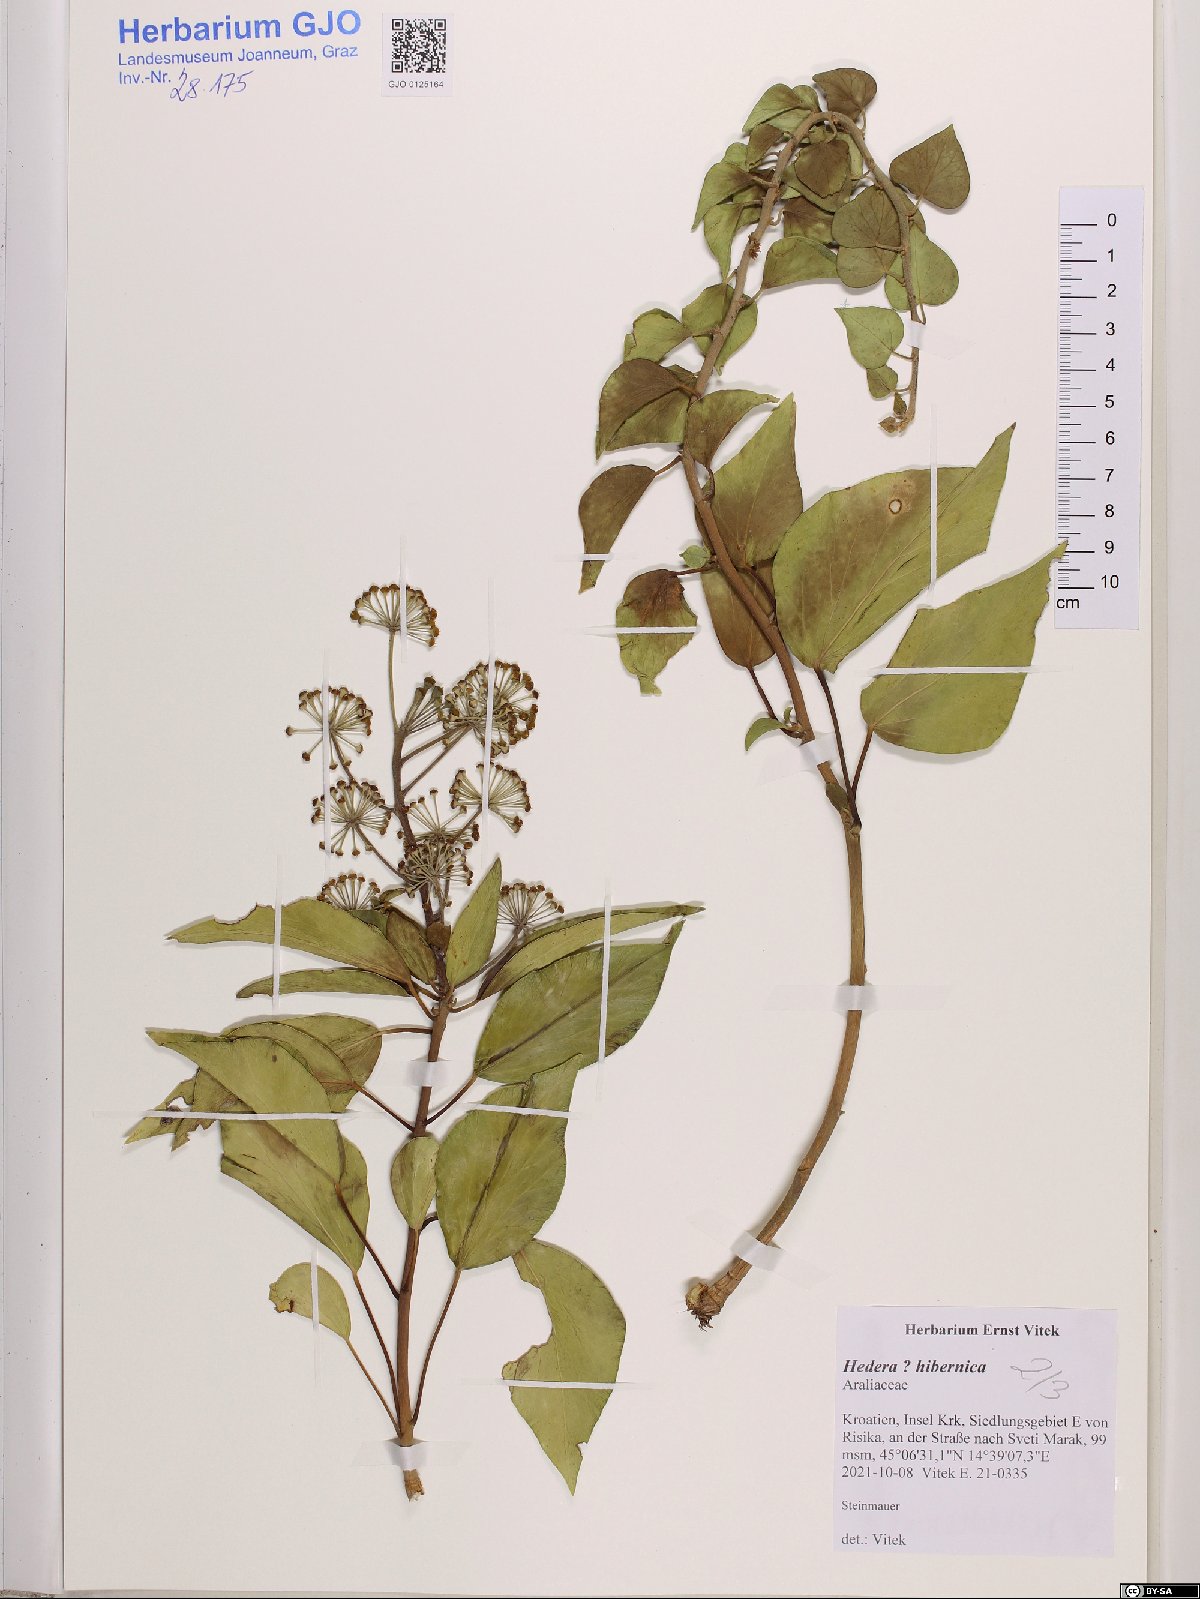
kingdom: Plantae
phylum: Tracheophyta
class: Magnoliopsida
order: Apiales
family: Araliaceae
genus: Hedera
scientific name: Hedera hibernica
